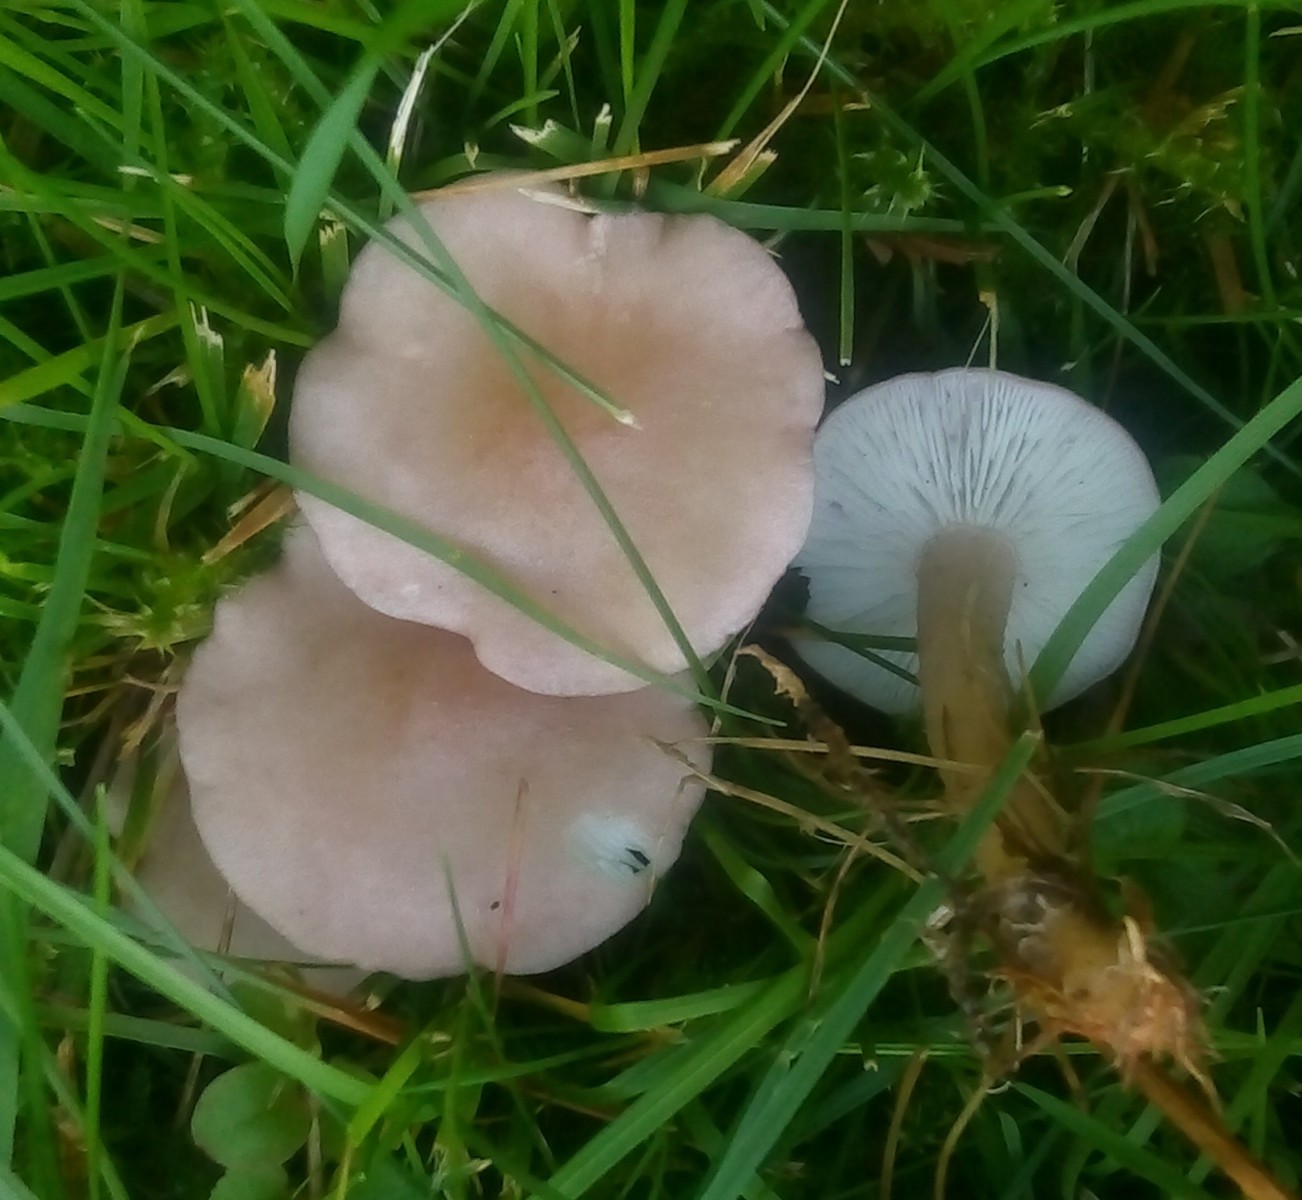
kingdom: Fungi
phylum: Basidiomycota
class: Agaricomycetes
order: Agaricales
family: Lyophyllaceae
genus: Calocybe
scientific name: Calocybe carnea
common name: rosa fagerhat
